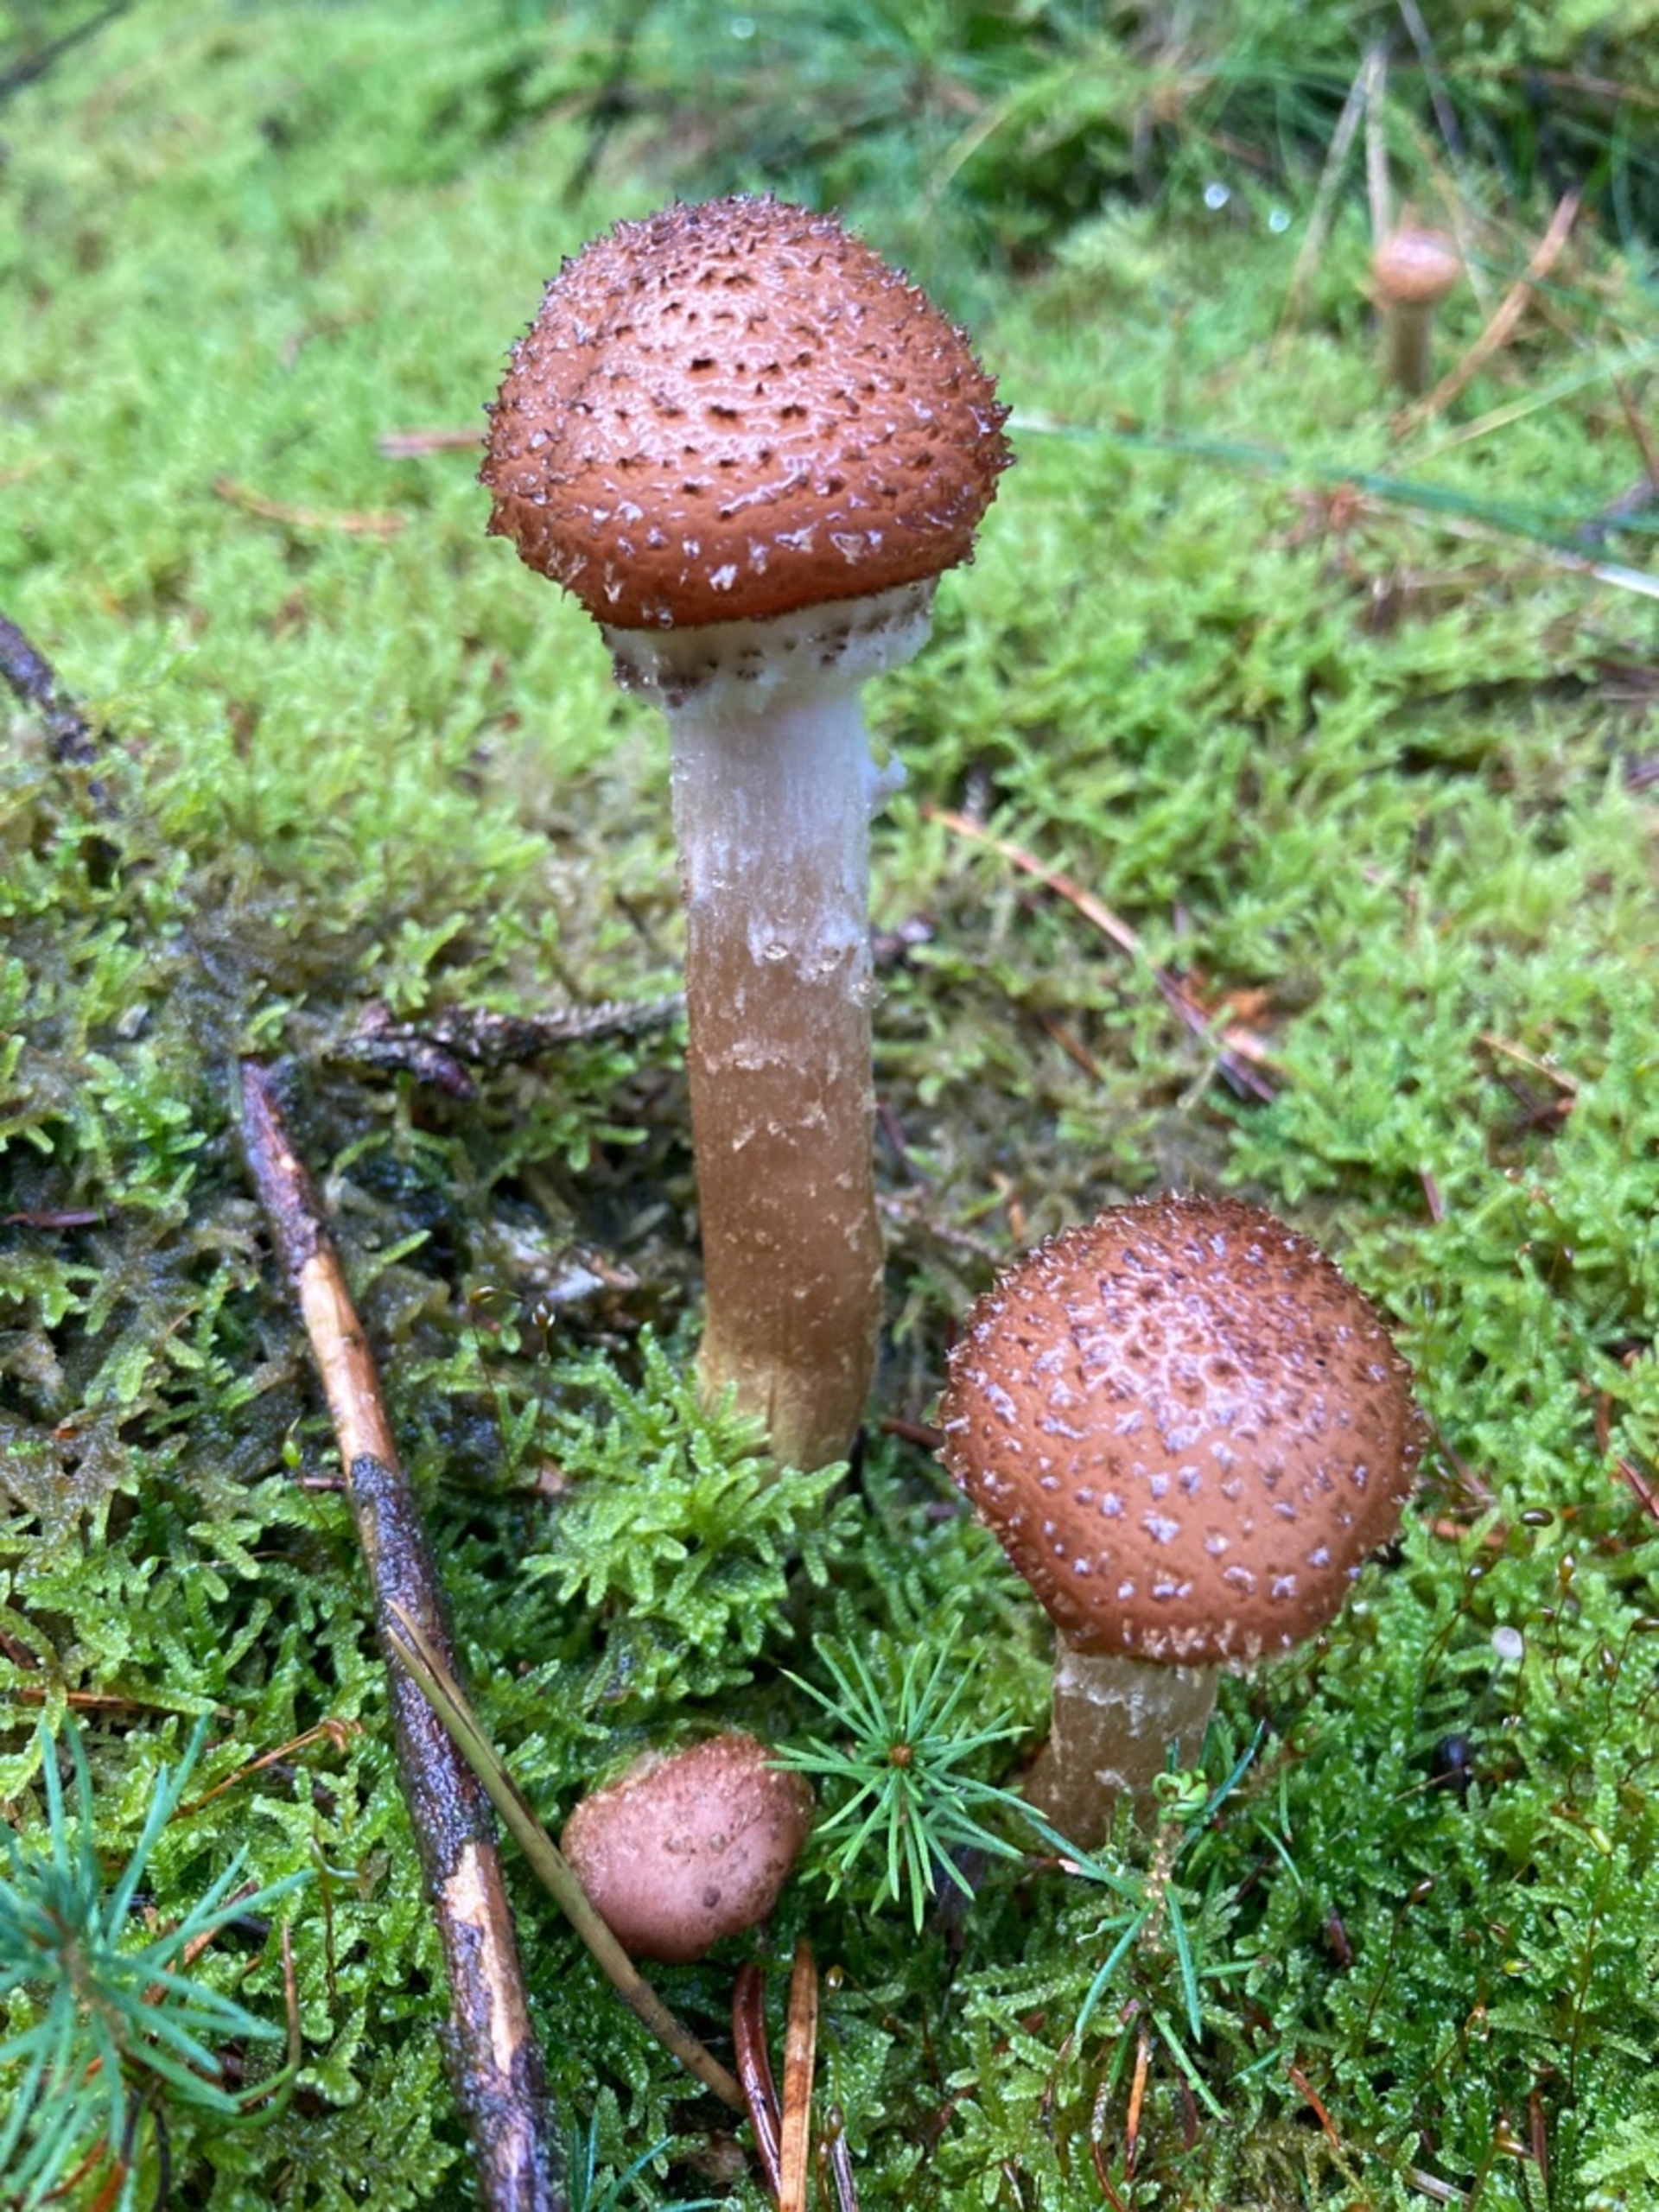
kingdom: Fungi
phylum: Basidiomycota
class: Agaricomycetes
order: Agaricales
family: Physalacriaceae
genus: Armillaria
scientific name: Armillaria ostoyae
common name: Mørk honningsvamp
